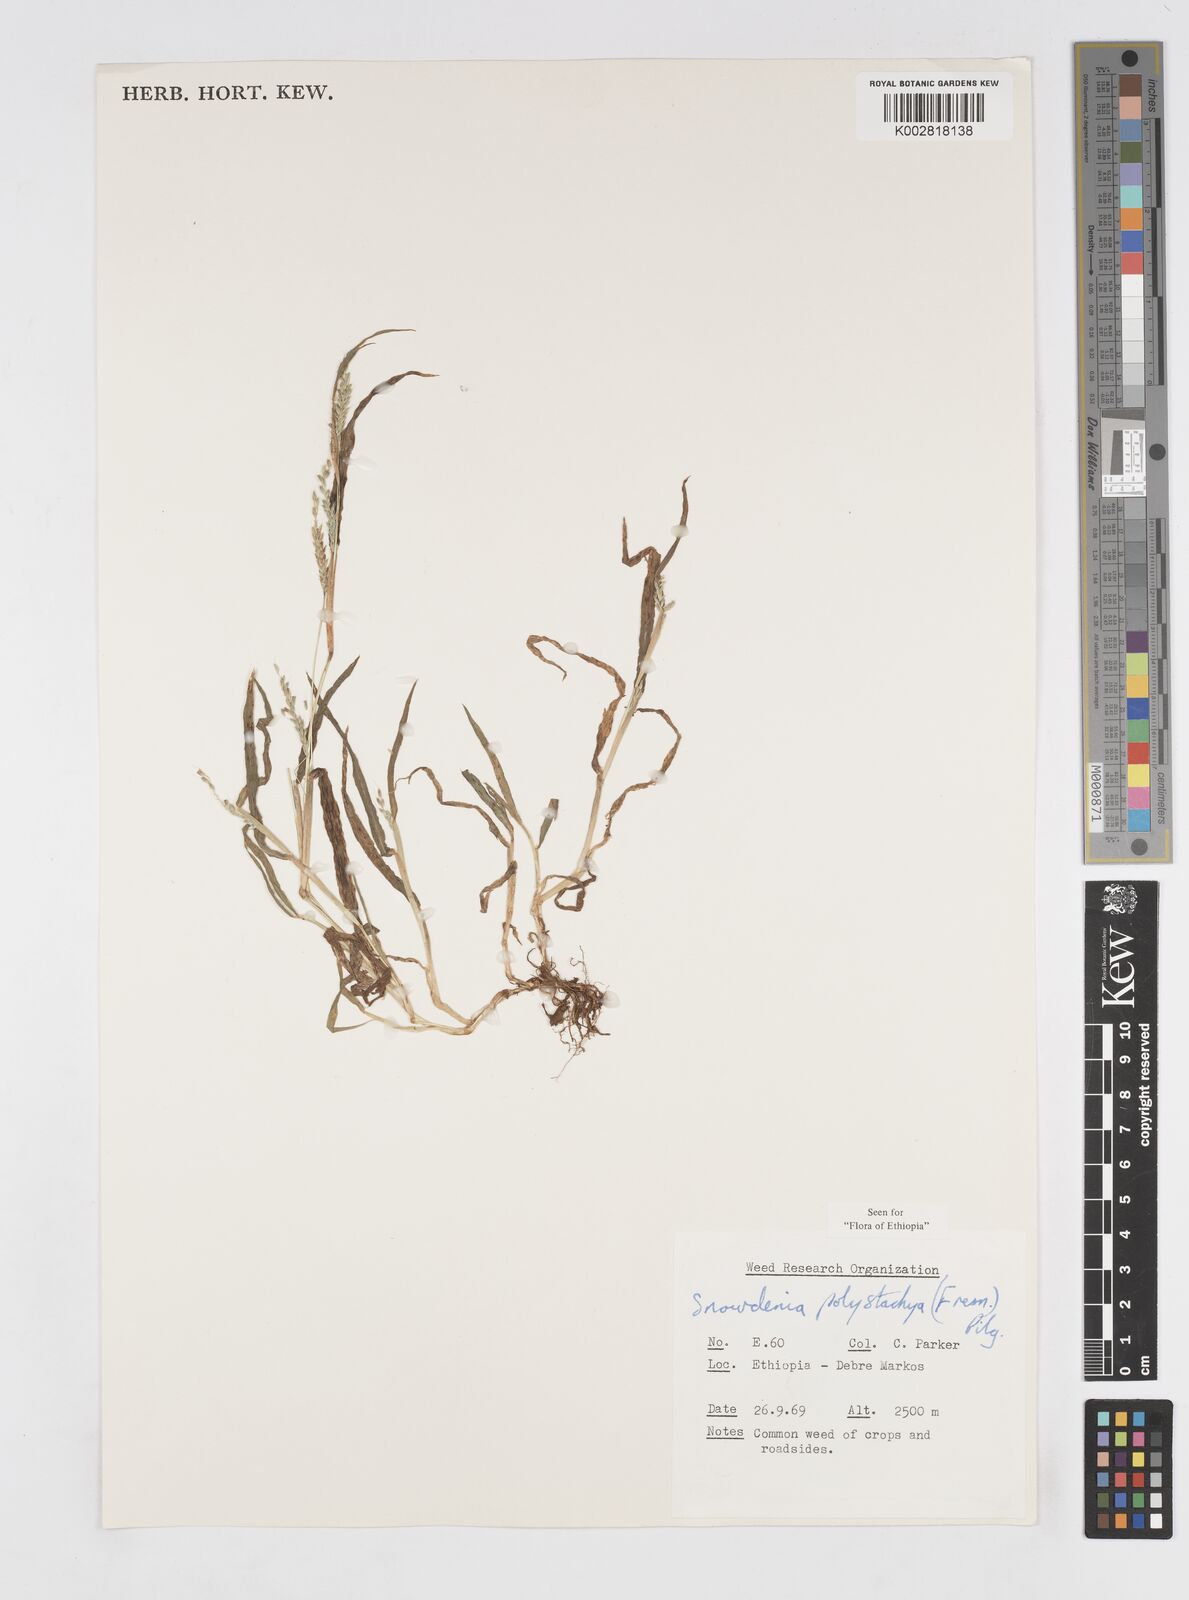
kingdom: Plantae
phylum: Tracheophyta
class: Liliopsida
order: Poales
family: Poaceae
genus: Snowdenia
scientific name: Snowdenia polystachya
